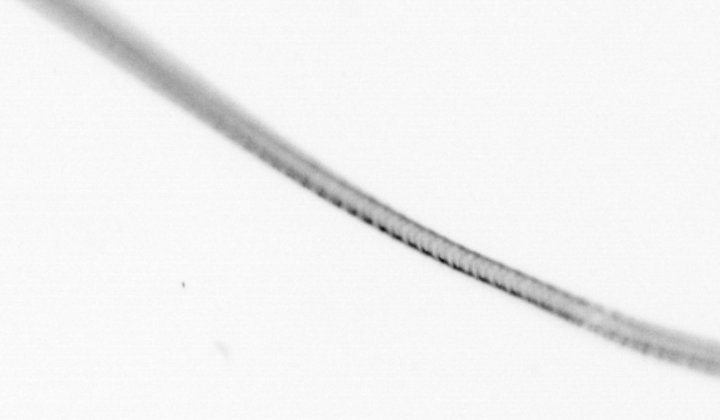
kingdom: Chromista
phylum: Ochrophyta
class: Bacillariophyceae
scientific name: Bacillariophyceae
